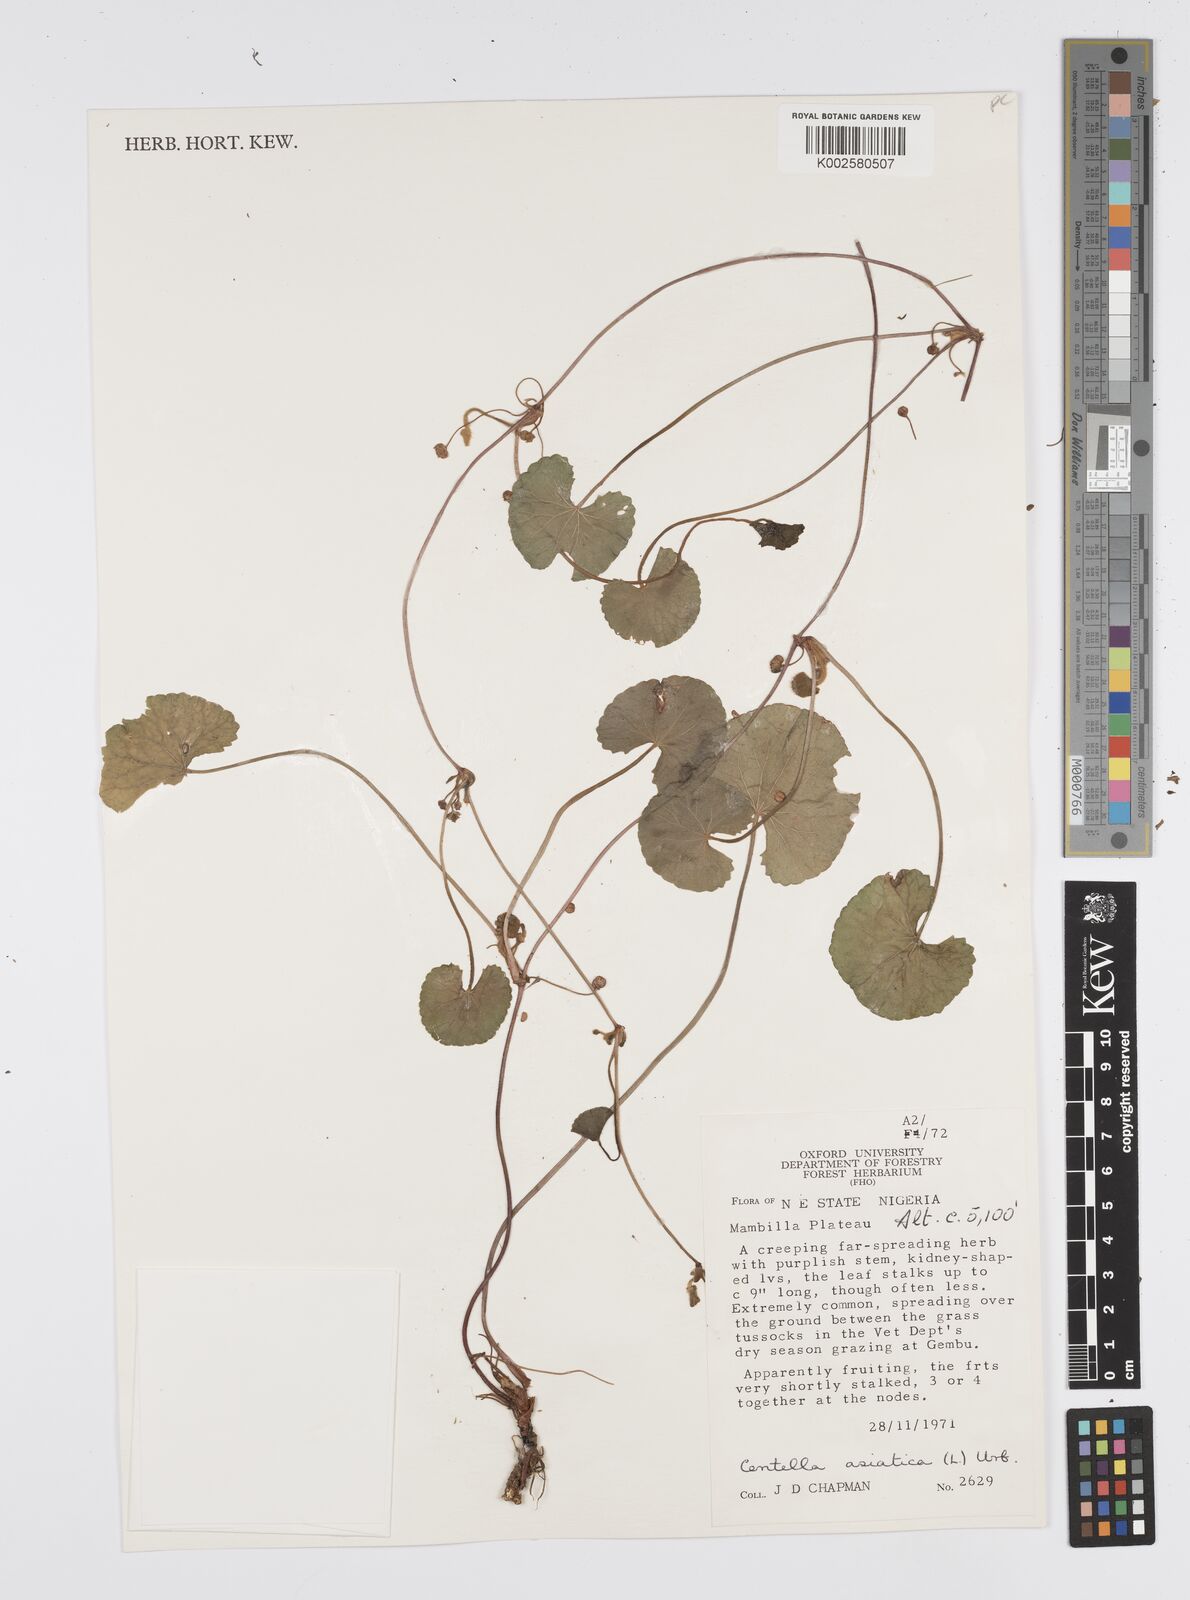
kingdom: Plantae
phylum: Tracheophyta
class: Magnoliopsida
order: Apiales
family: Apiaceae
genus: Centella
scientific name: Centella asiatica
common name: Spadeleaf
